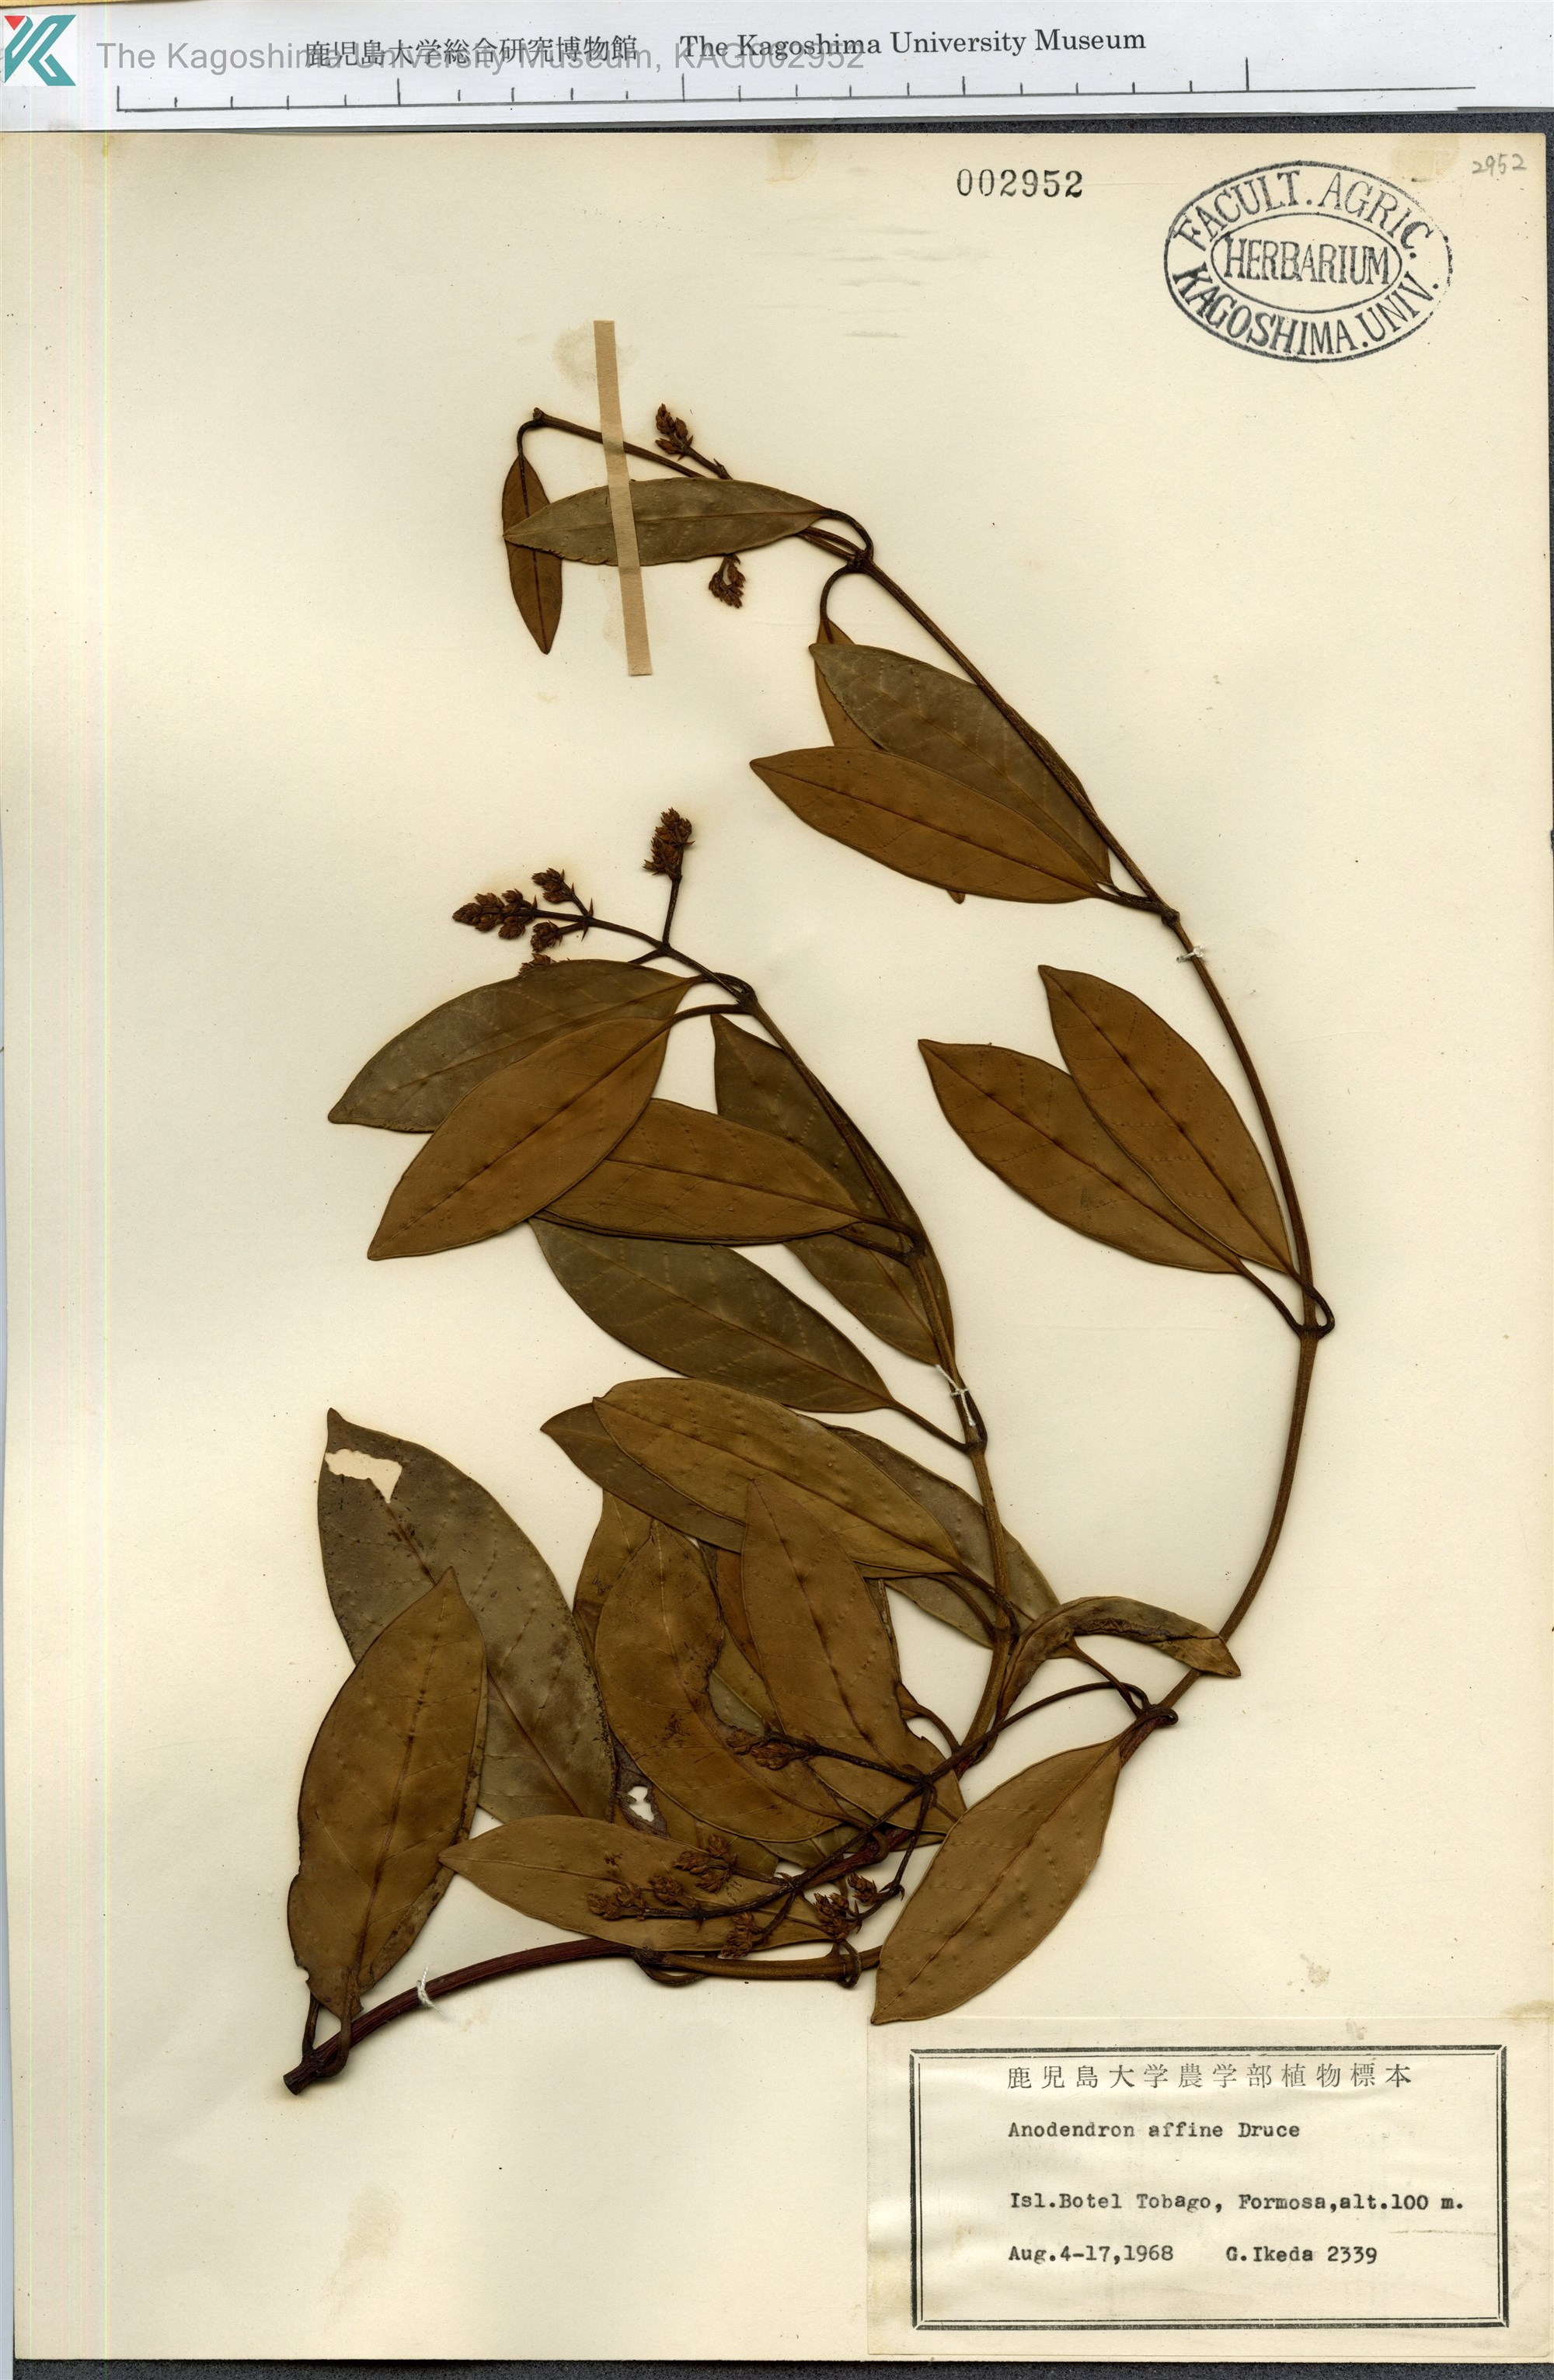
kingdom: Plantae
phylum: Tracheophyta
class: Magnoliopsida
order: Gentianales
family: Apocynaceae
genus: Anodendron
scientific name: Anodendron affine
